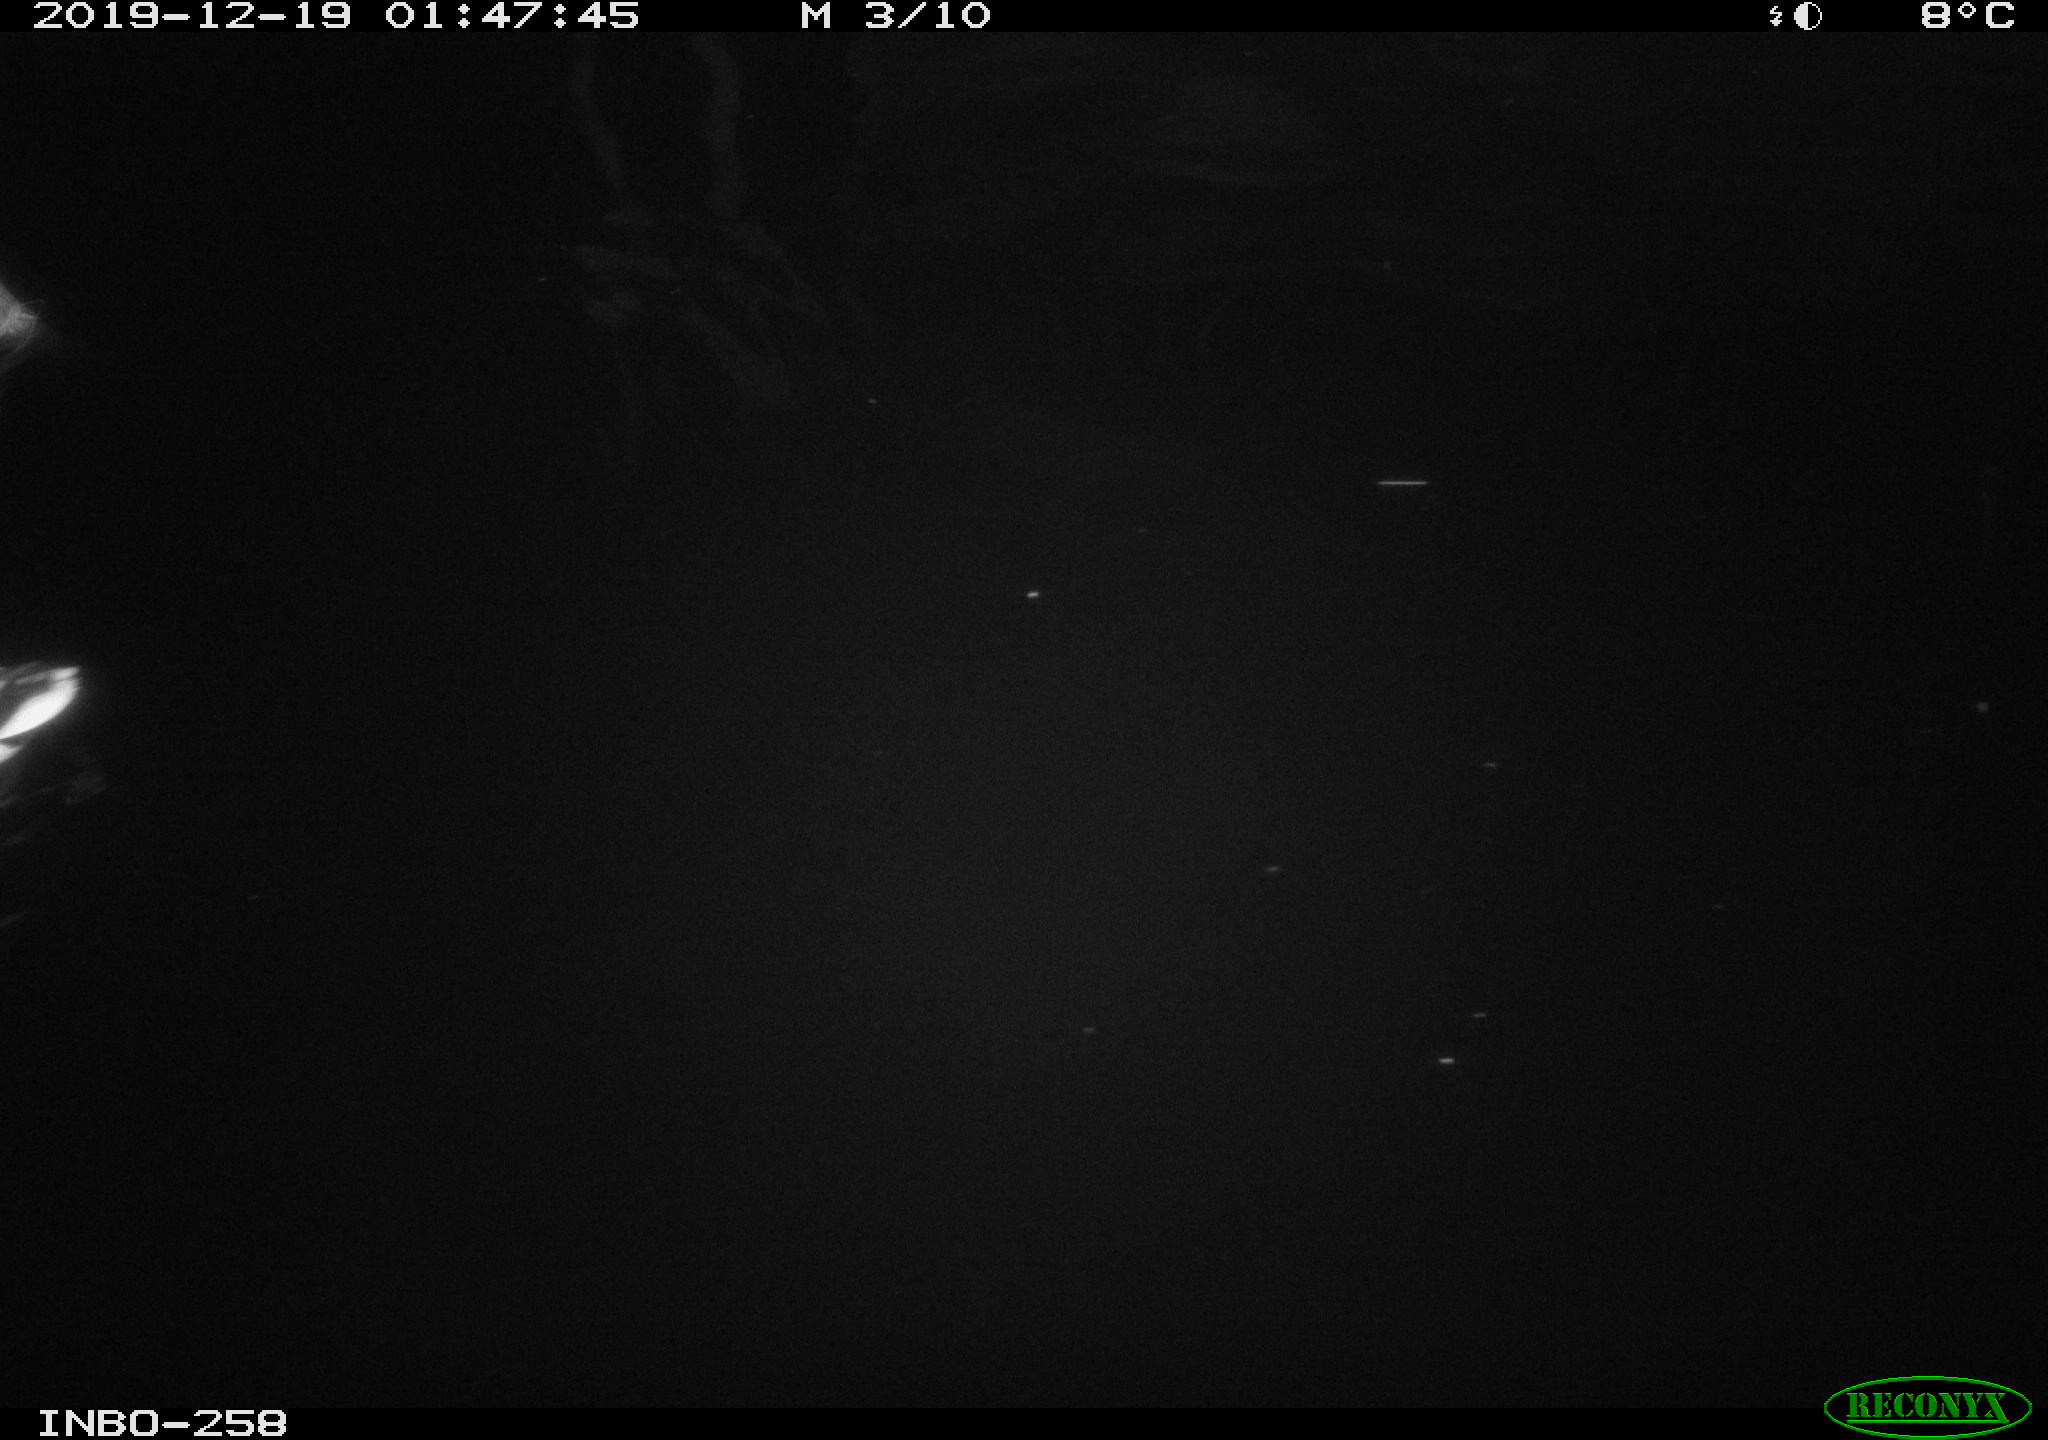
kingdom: Animalia
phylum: Chordata
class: Aves
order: Anseriformes
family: Anatidae
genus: Anas
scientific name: Anas platyrhynchos
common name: Mallard
